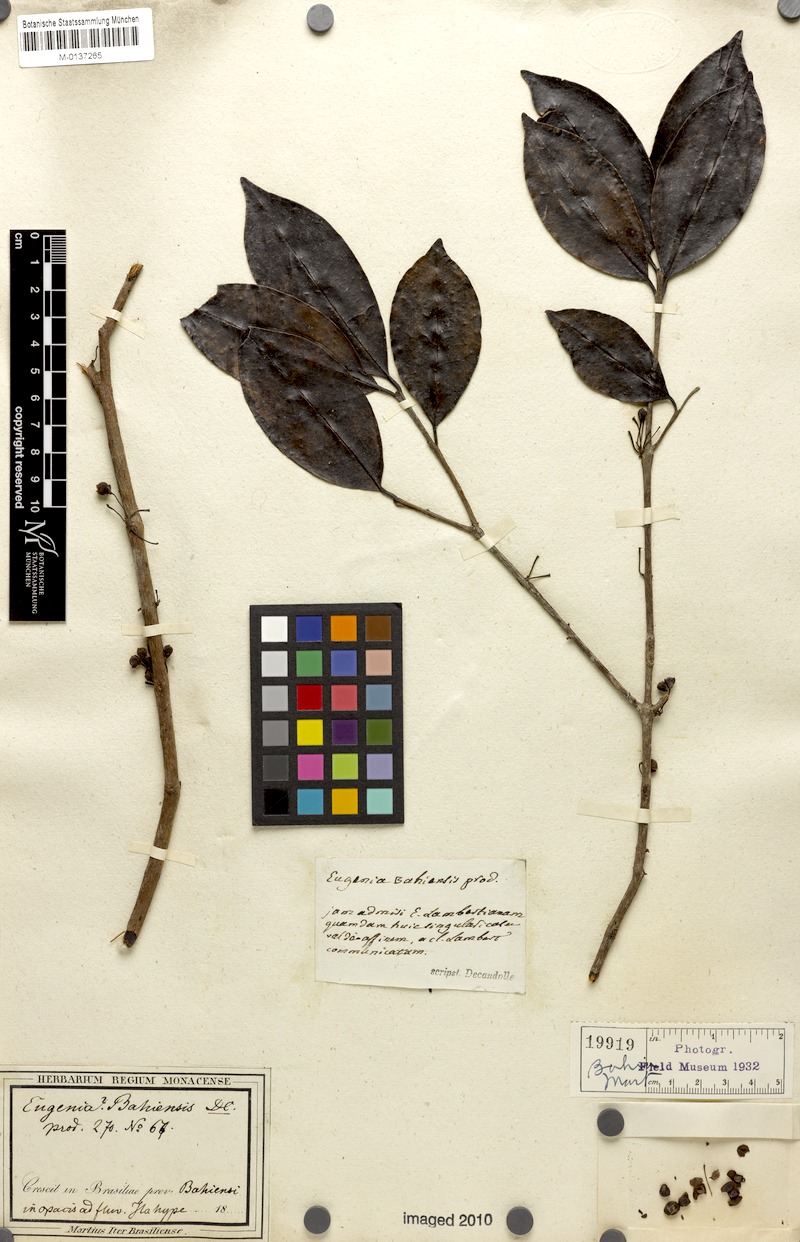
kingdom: Plantae
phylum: Tracheophyta
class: Magnoliopsida
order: Myrtales
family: Myrtaceae
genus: Eugenia
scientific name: Eugenia bahiensis
